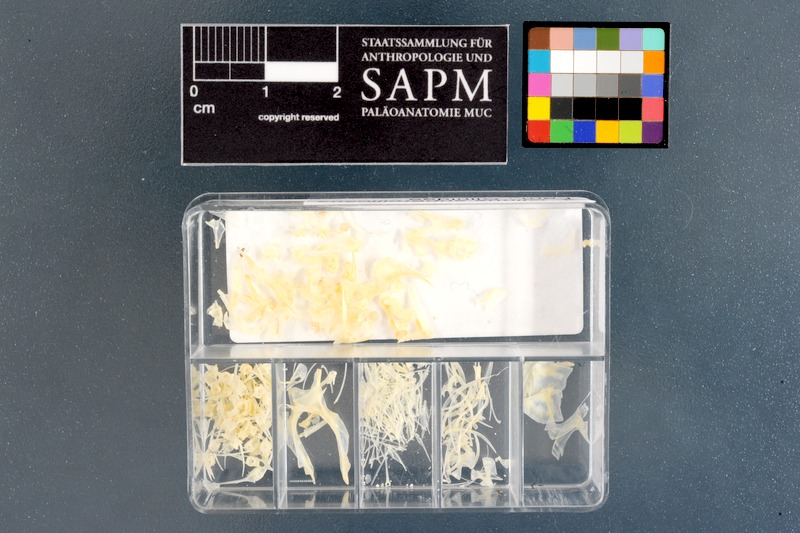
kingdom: Animalia
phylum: Chordata
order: Perciformes
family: Clinidae
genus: Clinus
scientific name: Clinus superciliosus
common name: Super klipfish
